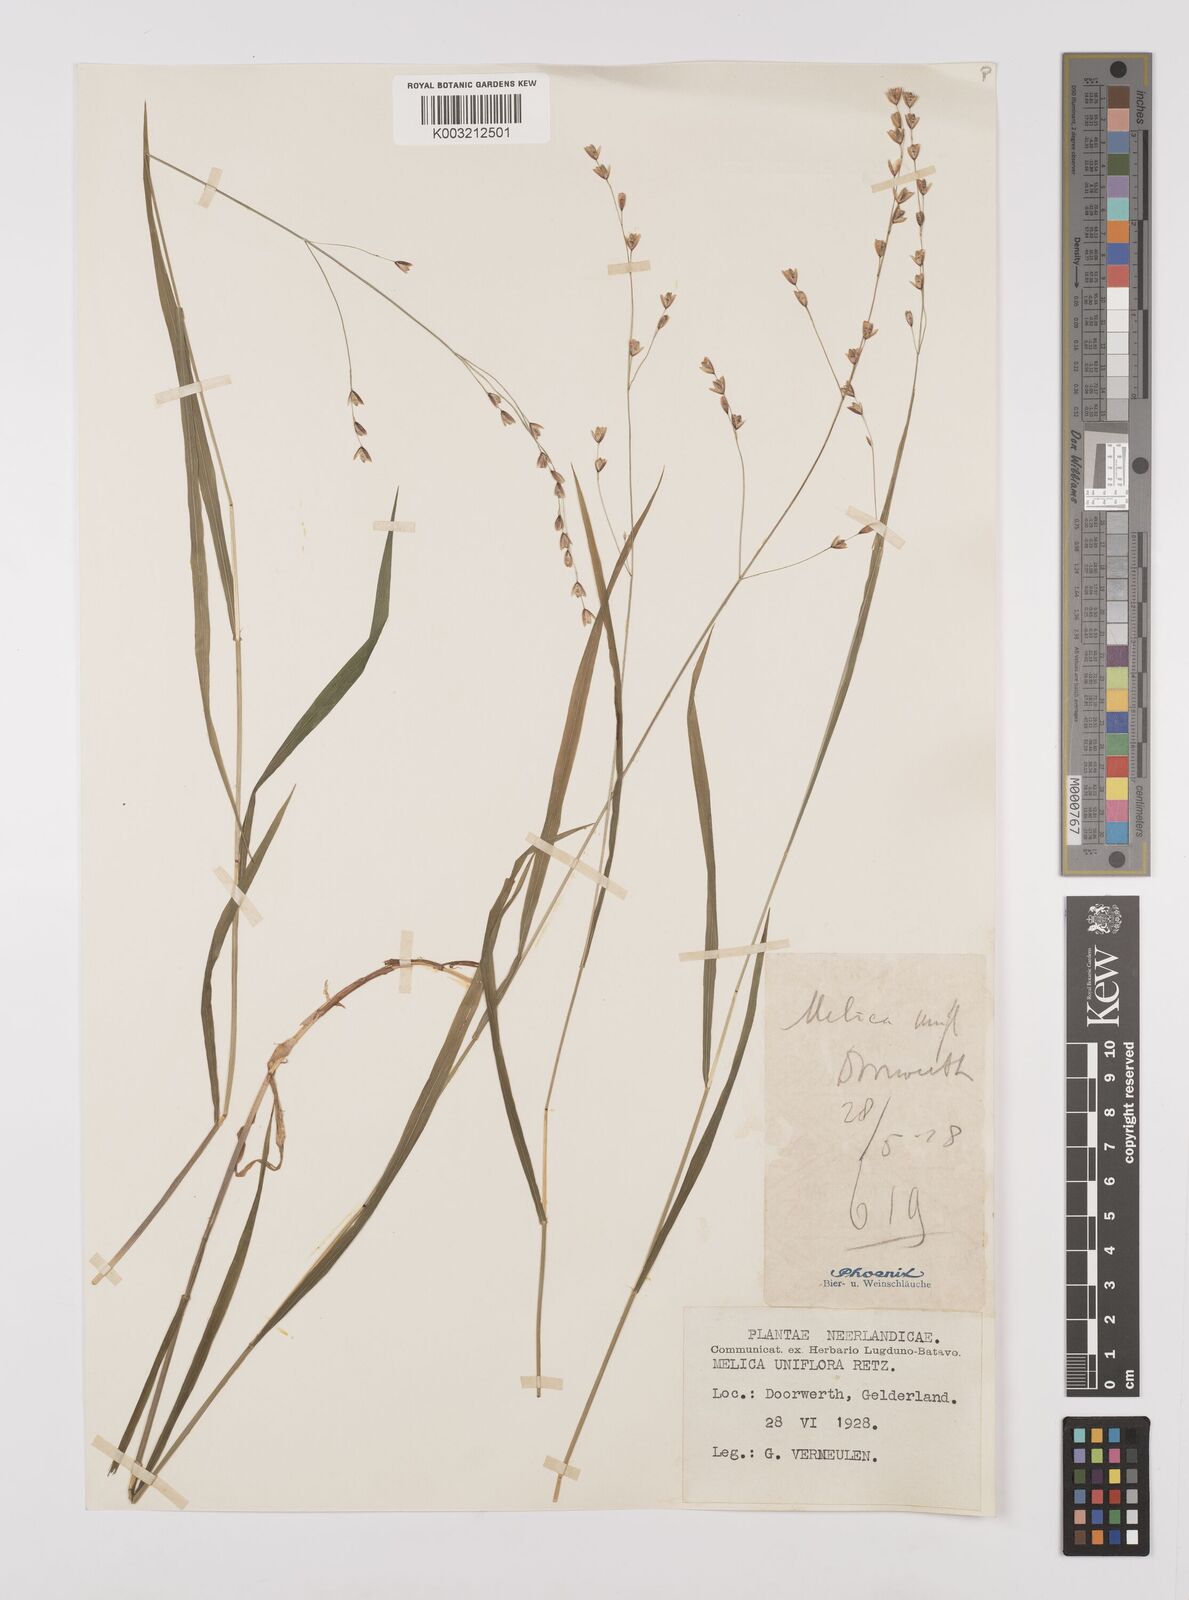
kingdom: Plantae
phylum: Tracheophyta
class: Liliopsida
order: Poales
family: Poaceae
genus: Melica
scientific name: Melica uniflora
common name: Wood melick
